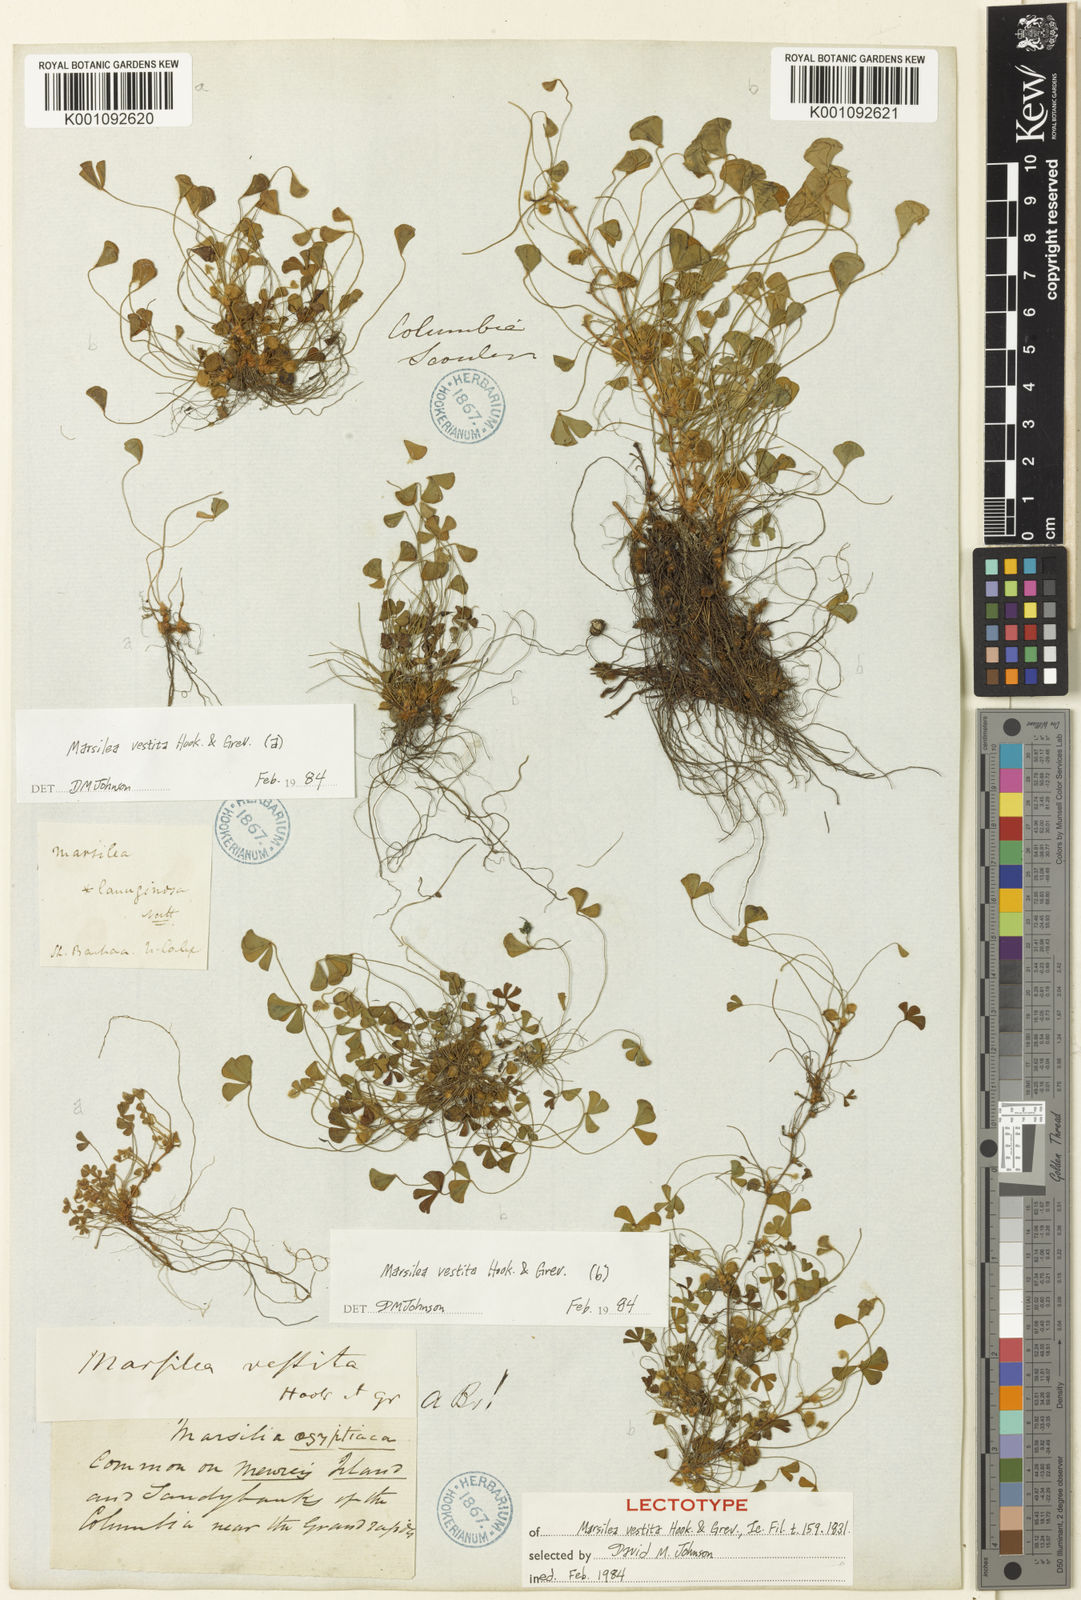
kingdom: Plantae
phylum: Tracheophyta
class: Polypodiopsida
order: Salviniales
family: Marsileaceae
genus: Marsilea
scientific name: Marsilea vestita
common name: Hooked-pepperwort
